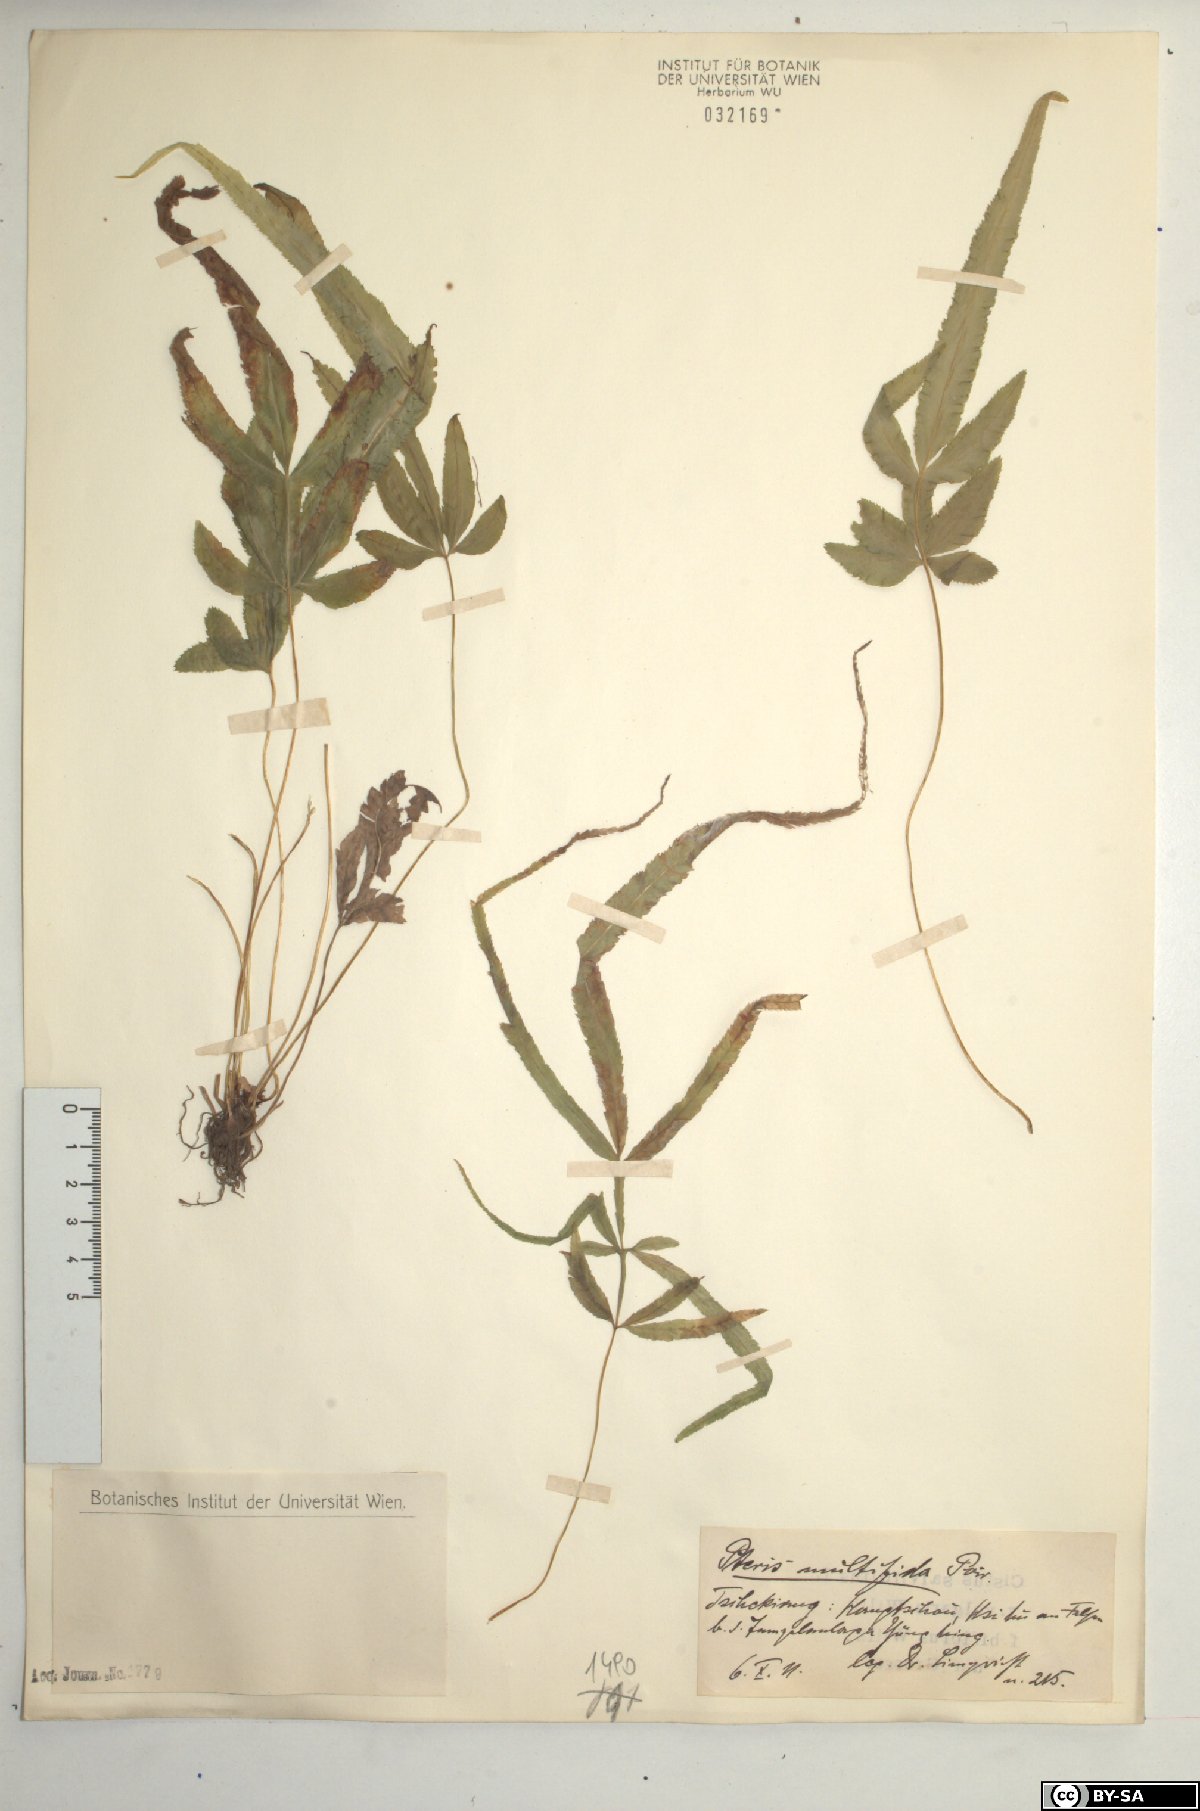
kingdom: Plantae
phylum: Tracheophyta
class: Polypodiopsida
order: Polypodiales
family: Pteridaceae
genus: Pteris
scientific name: Pteris multifida
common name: Spider brake
